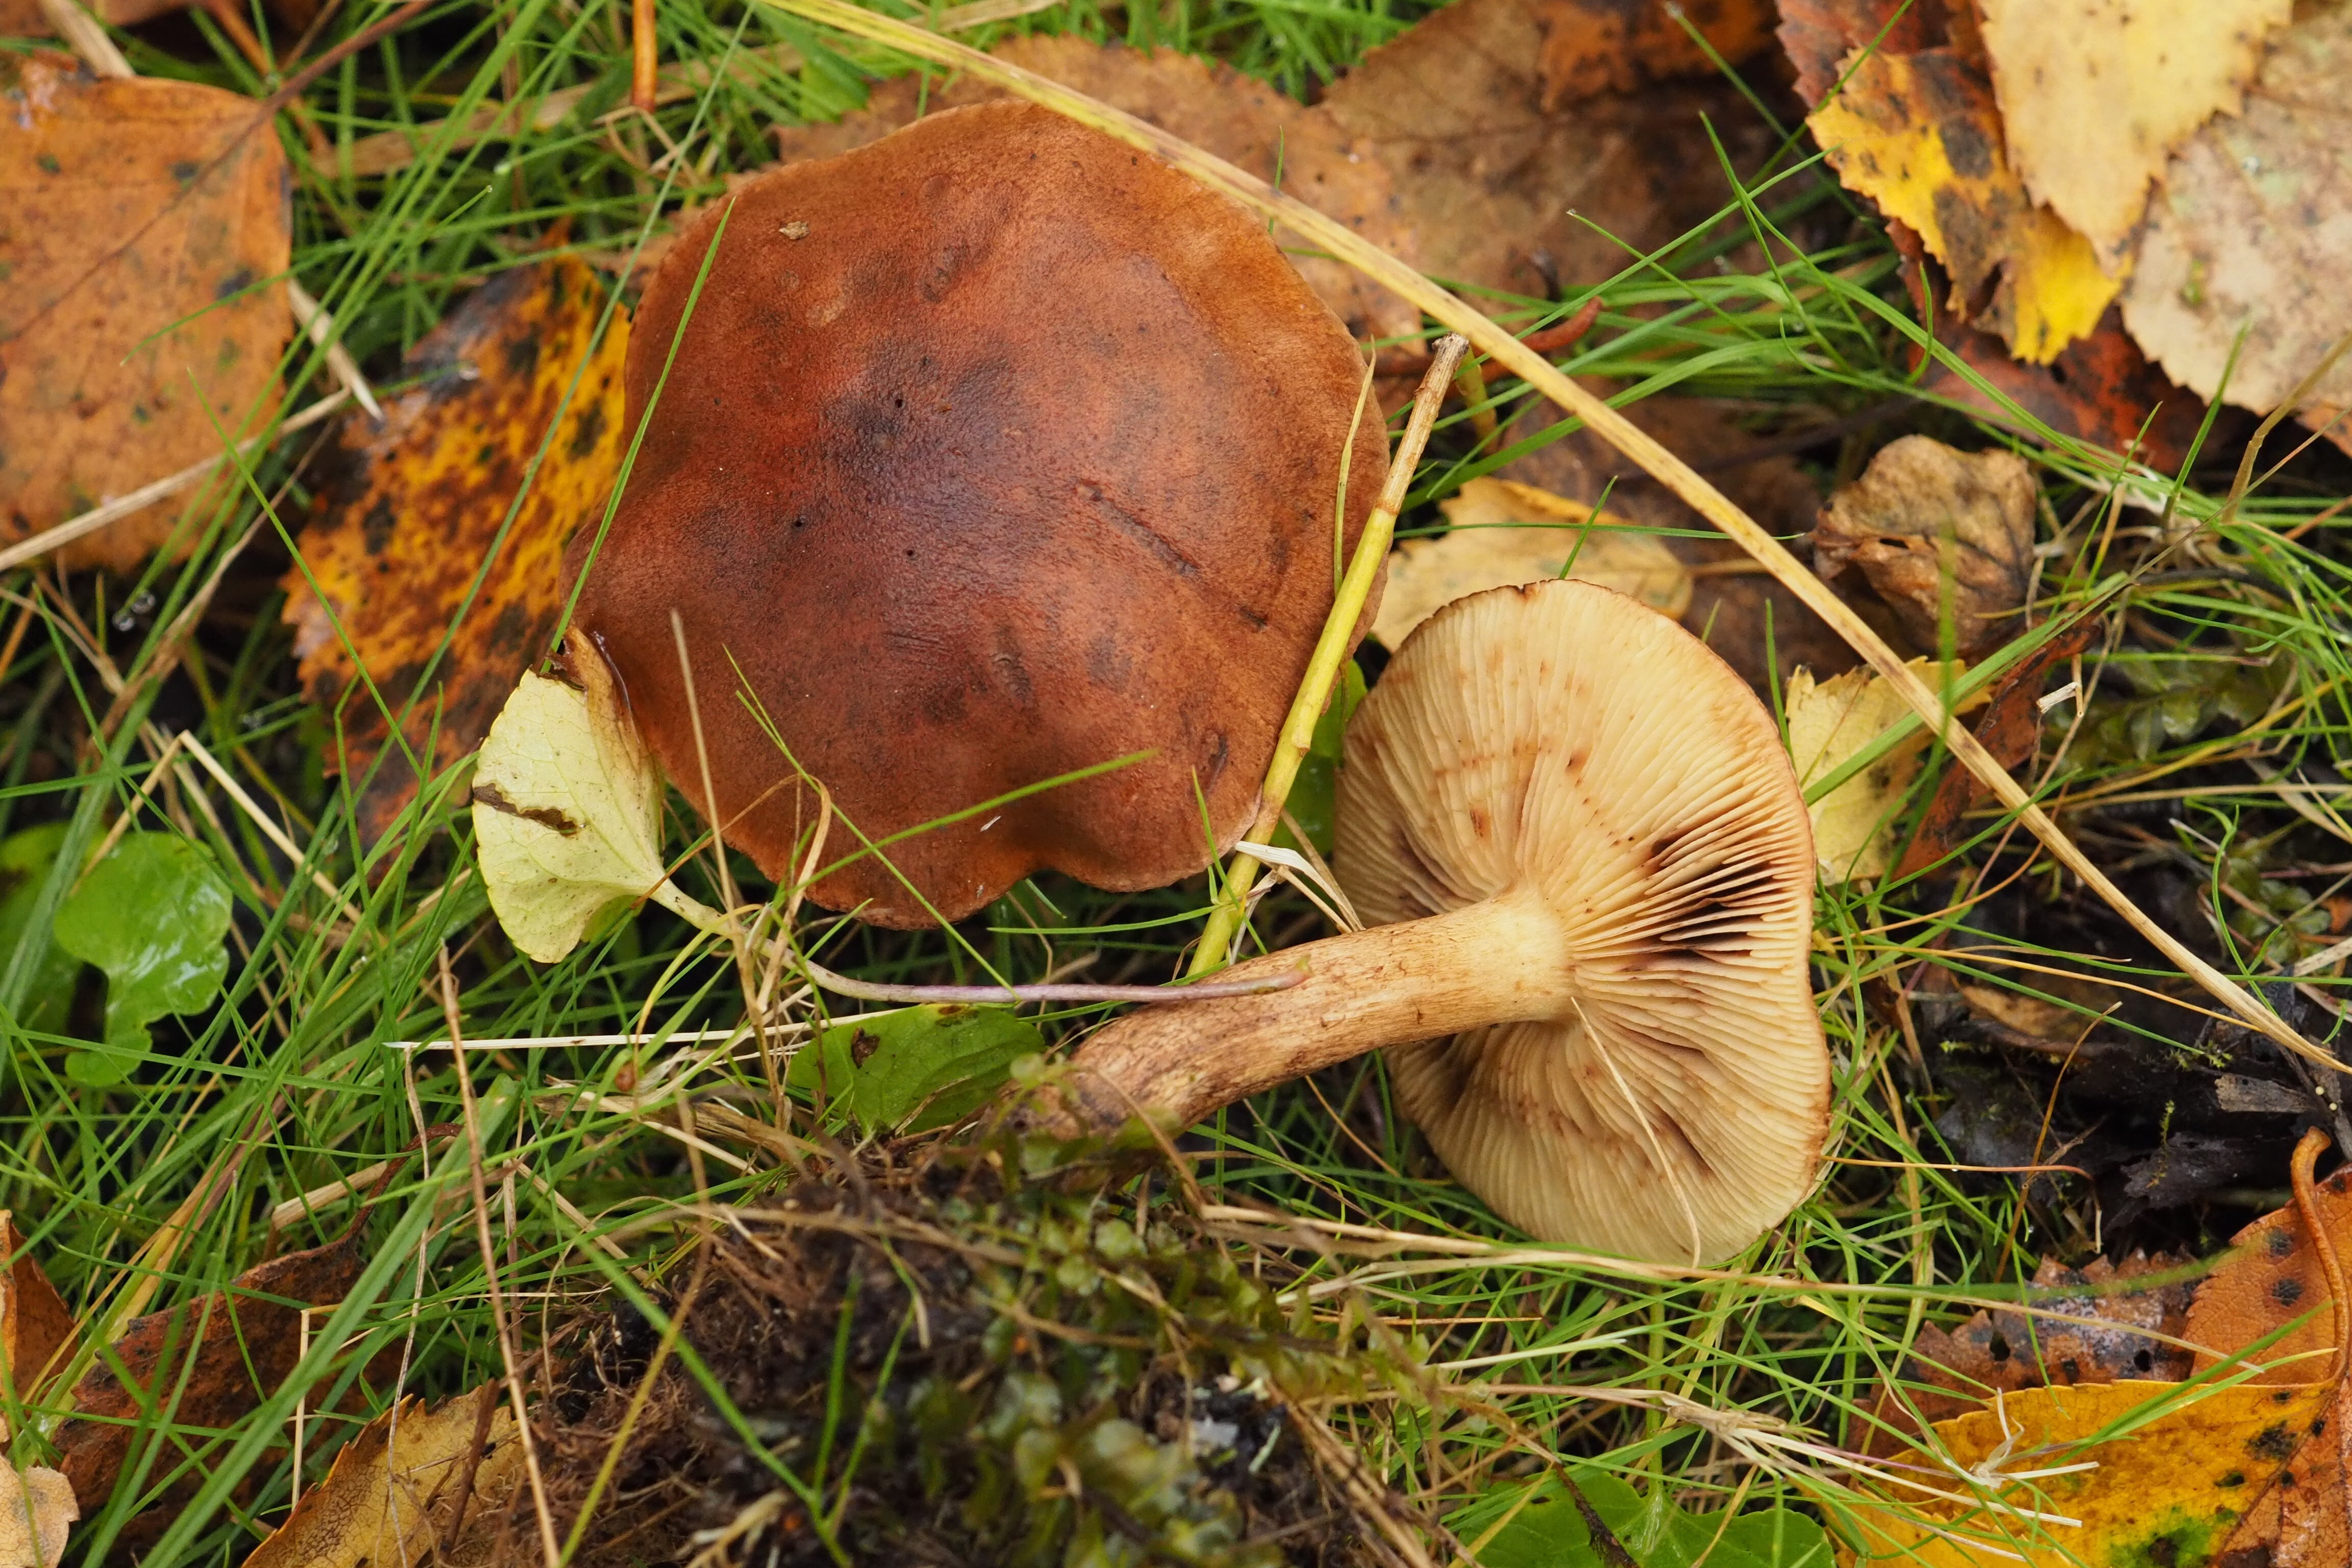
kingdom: Fungi
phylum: Basidiomycota
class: Agaricomycetes
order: Agaricales
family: Tricholomataceae
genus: Tricholoma
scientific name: Tricholoma fulvum
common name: Birch knight
